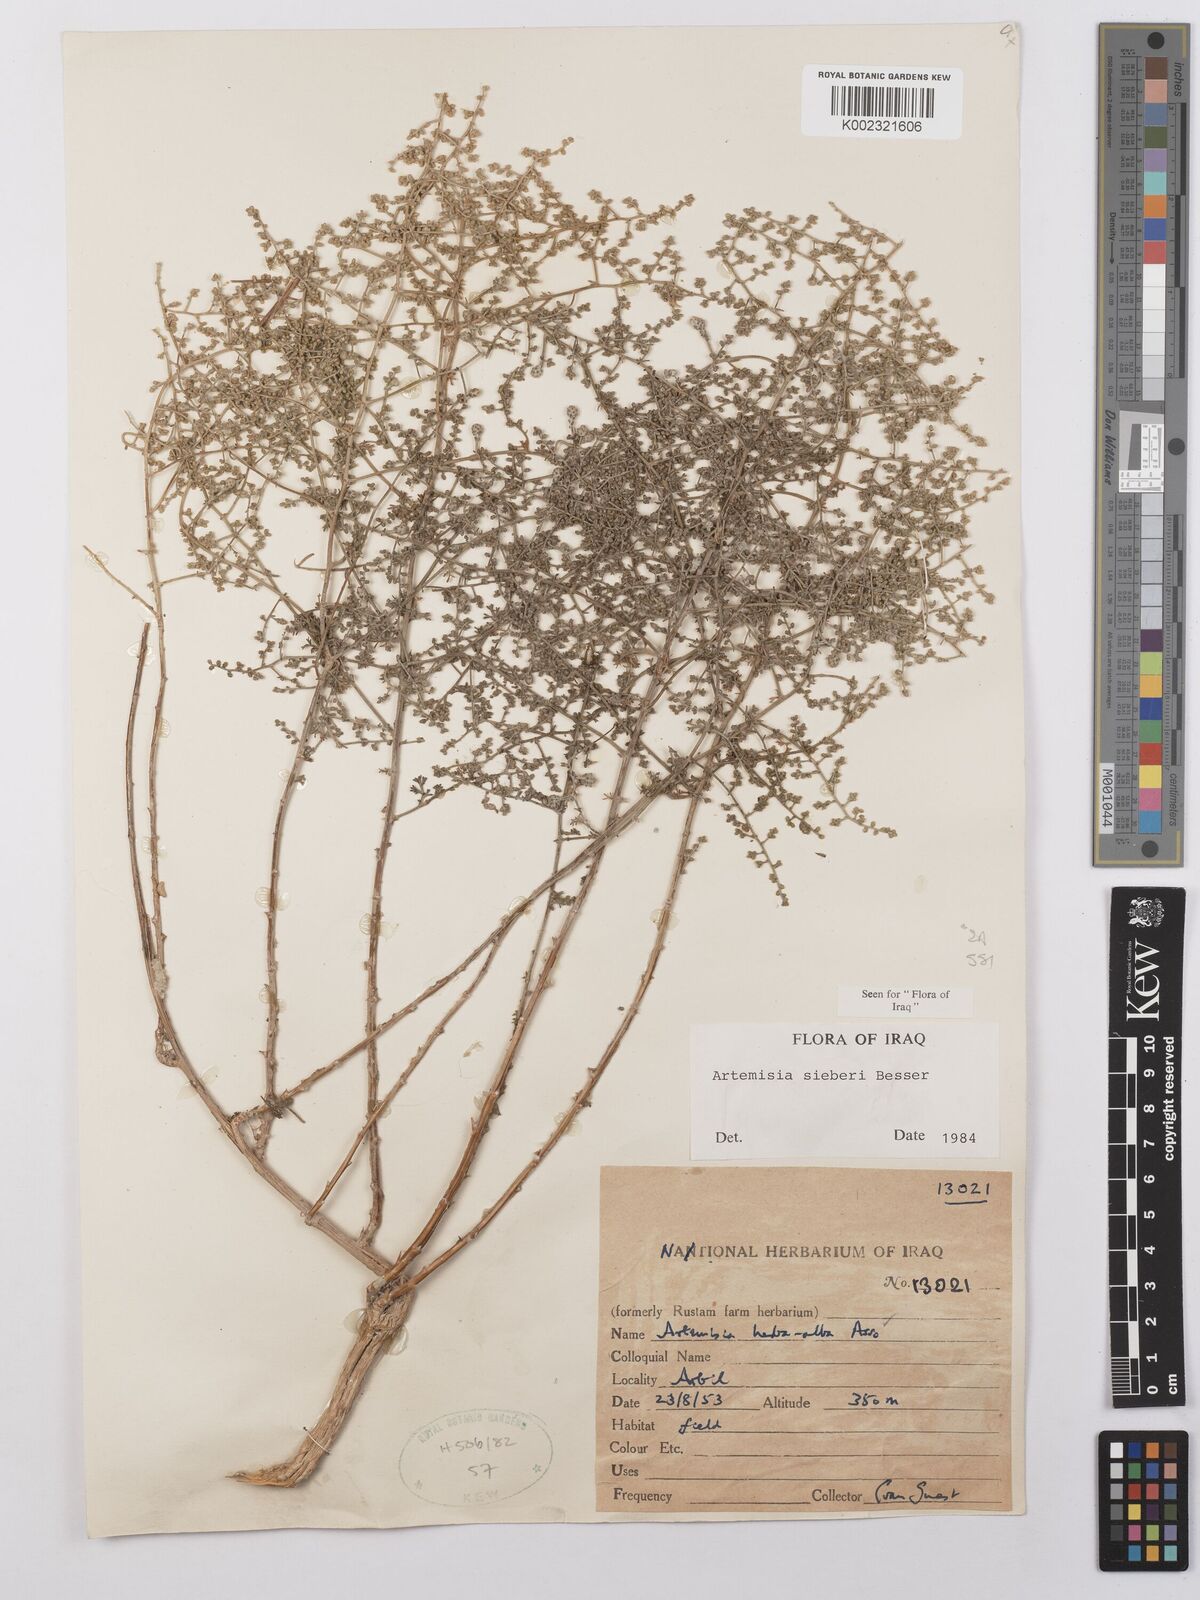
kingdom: Plantae
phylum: Tracheophyta
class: Magnoliopsida
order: Asterales
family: Asteraceae
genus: Artemisia
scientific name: Artemisia sieberi
